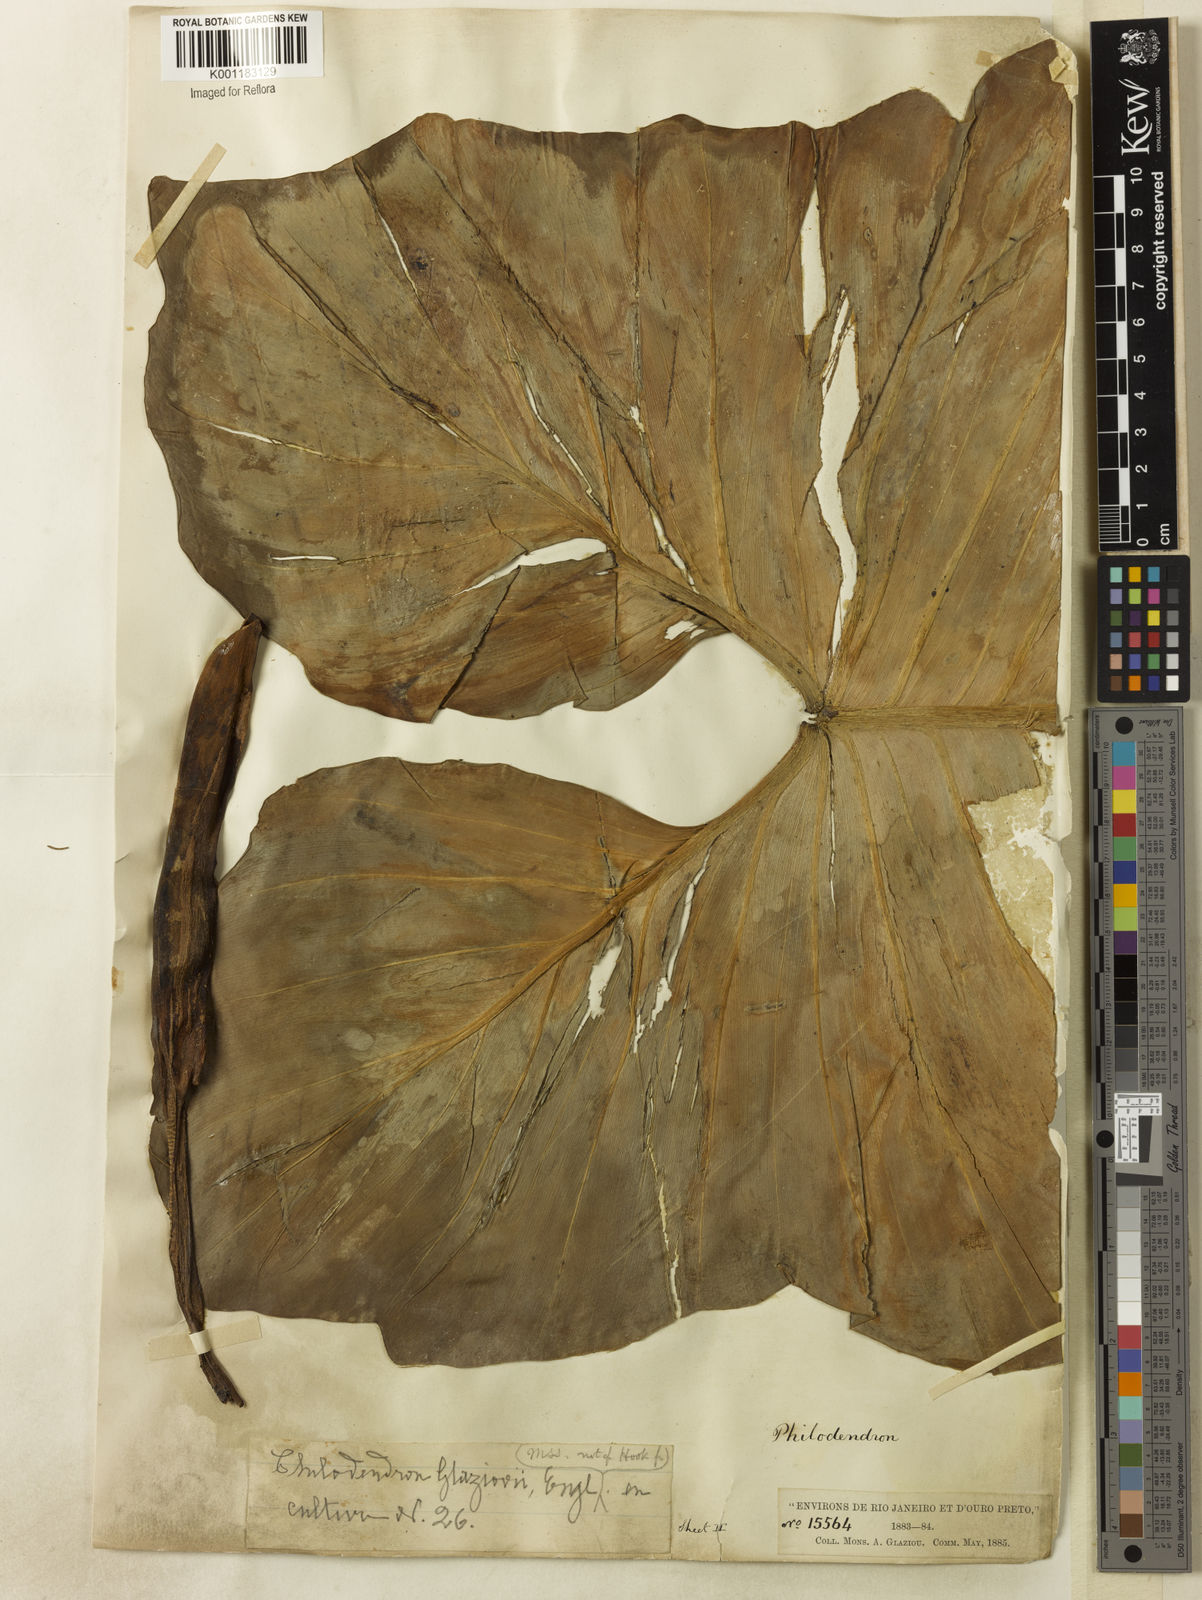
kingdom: Plantae
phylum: Tracheophyta
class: Liliopsida
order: Alismatales
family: Araceae
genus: Philodendron
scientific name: Philodendron cordatum
